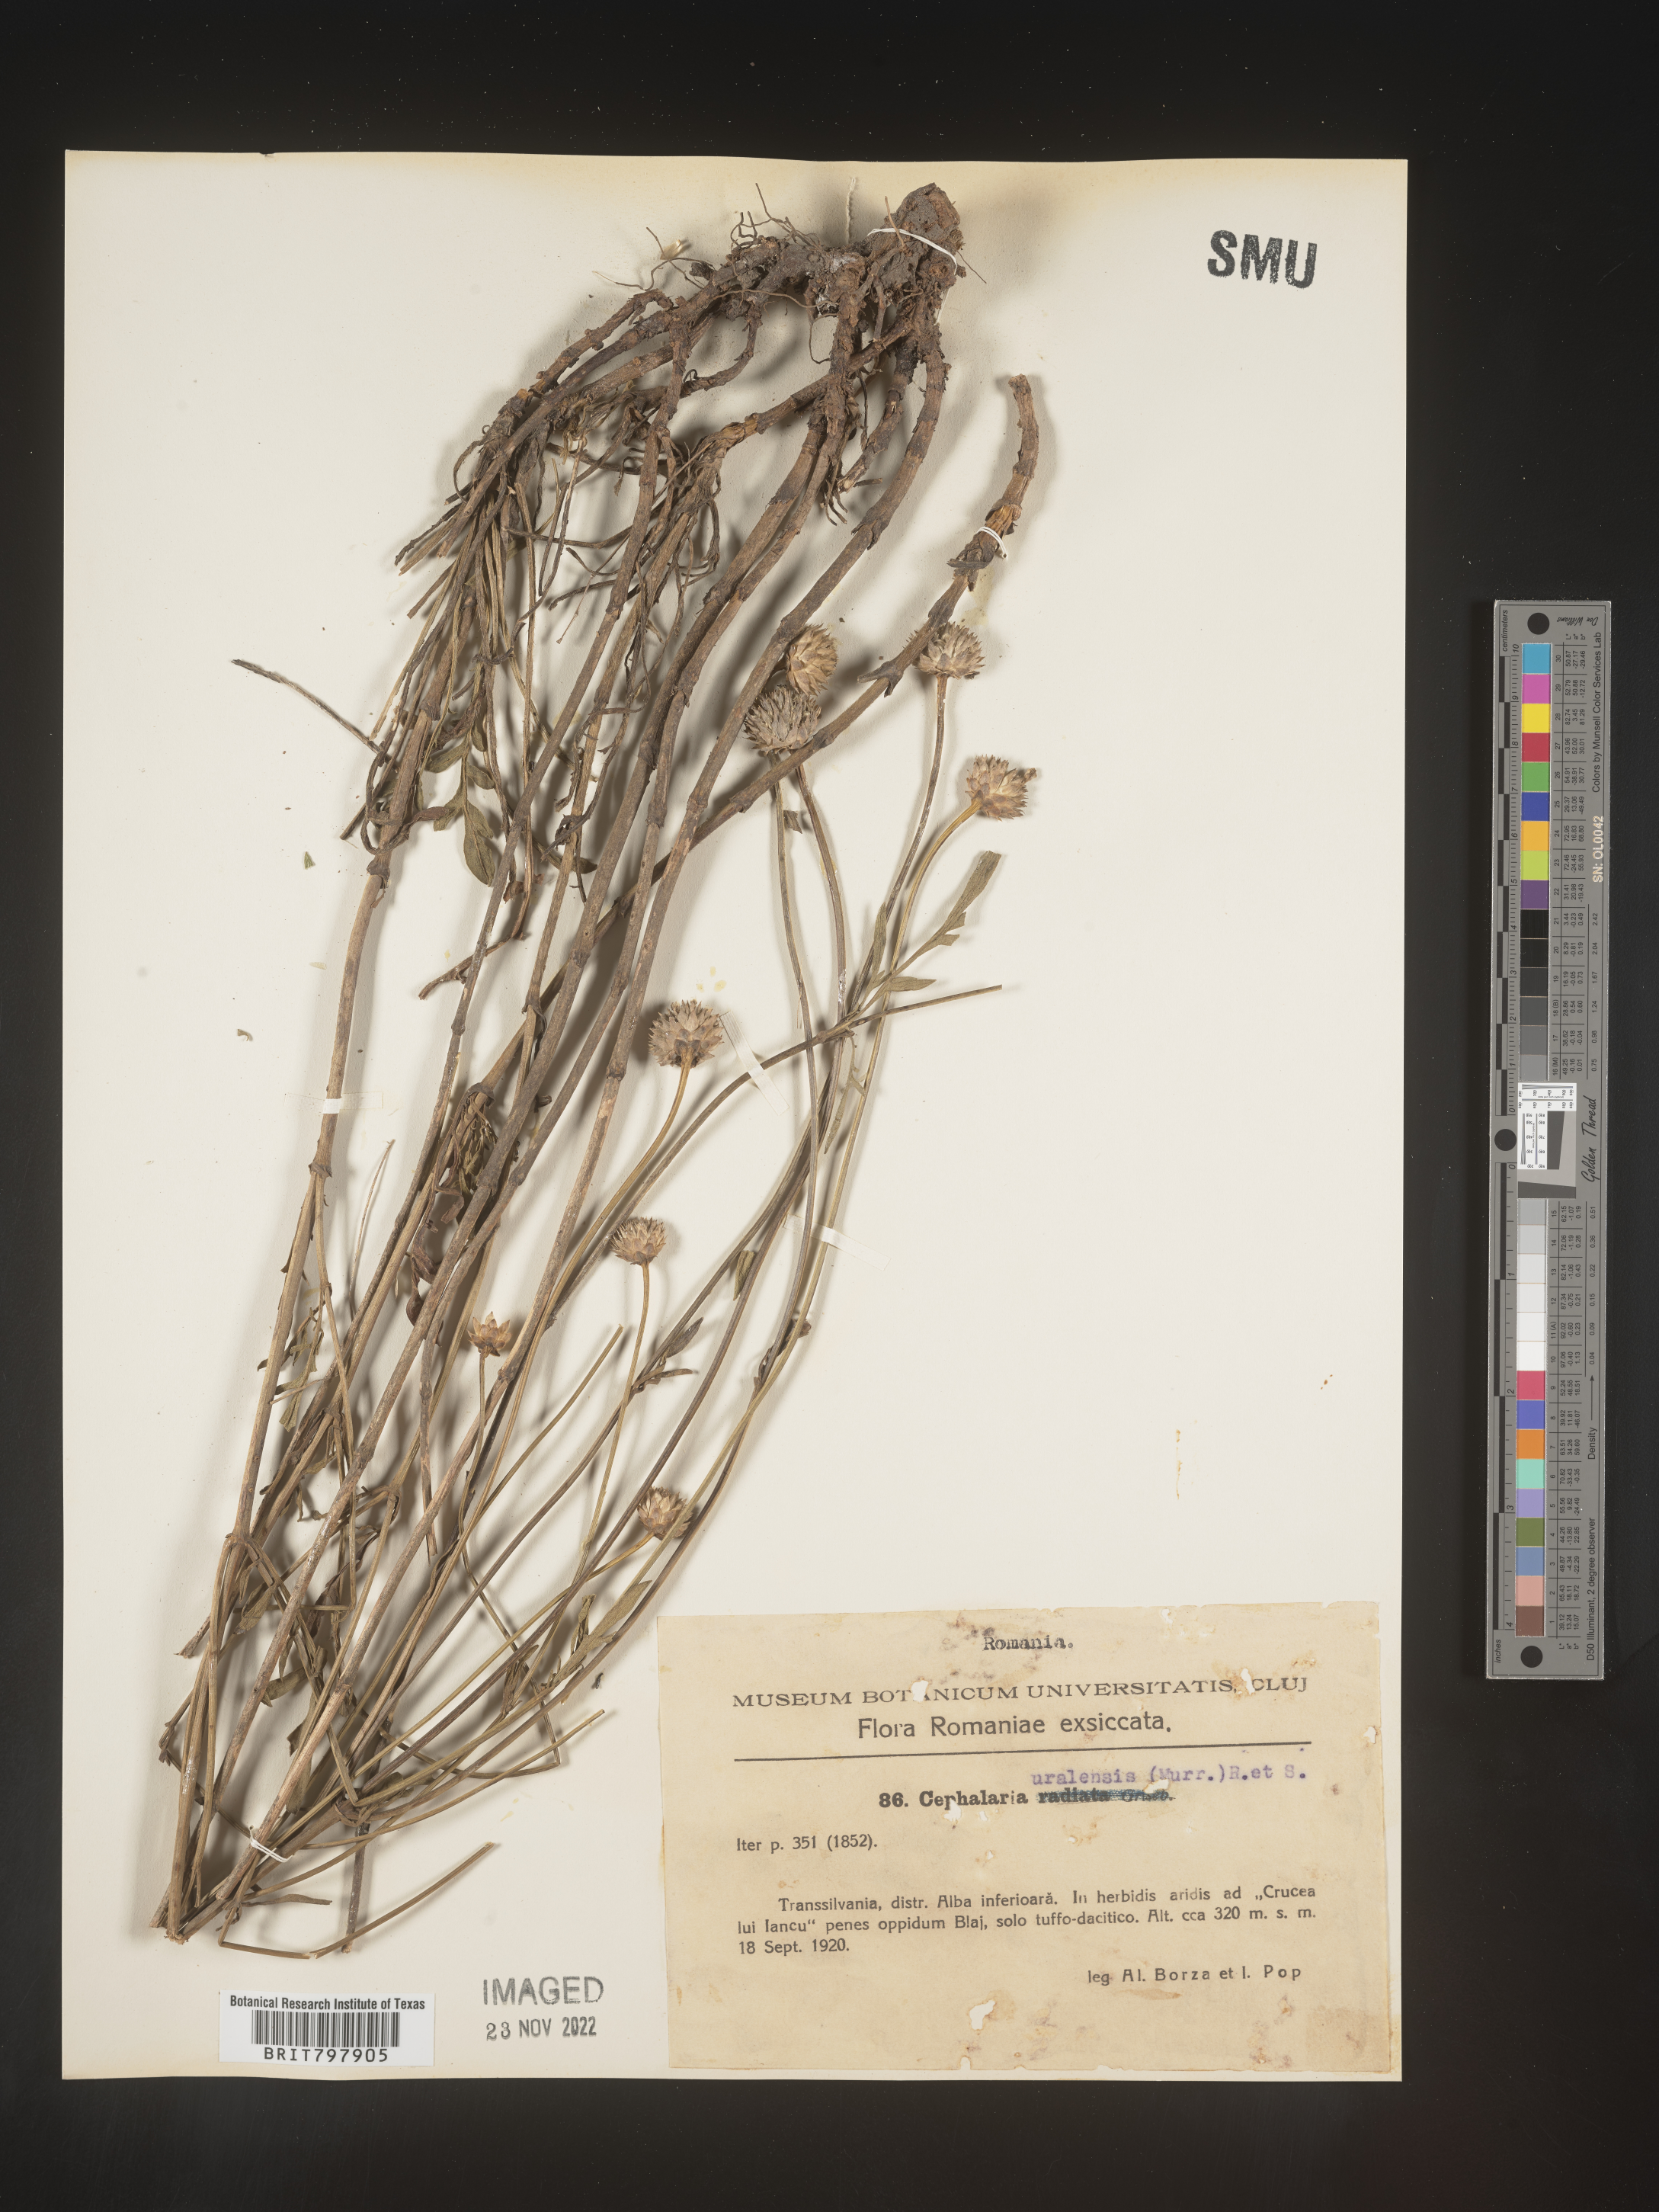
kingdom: Plantae
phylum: Tracheophyta
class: Magnoliopsida
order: Dipsacales
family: Caprifoliaceae
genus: Cephalaria
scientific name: Cephalaria
